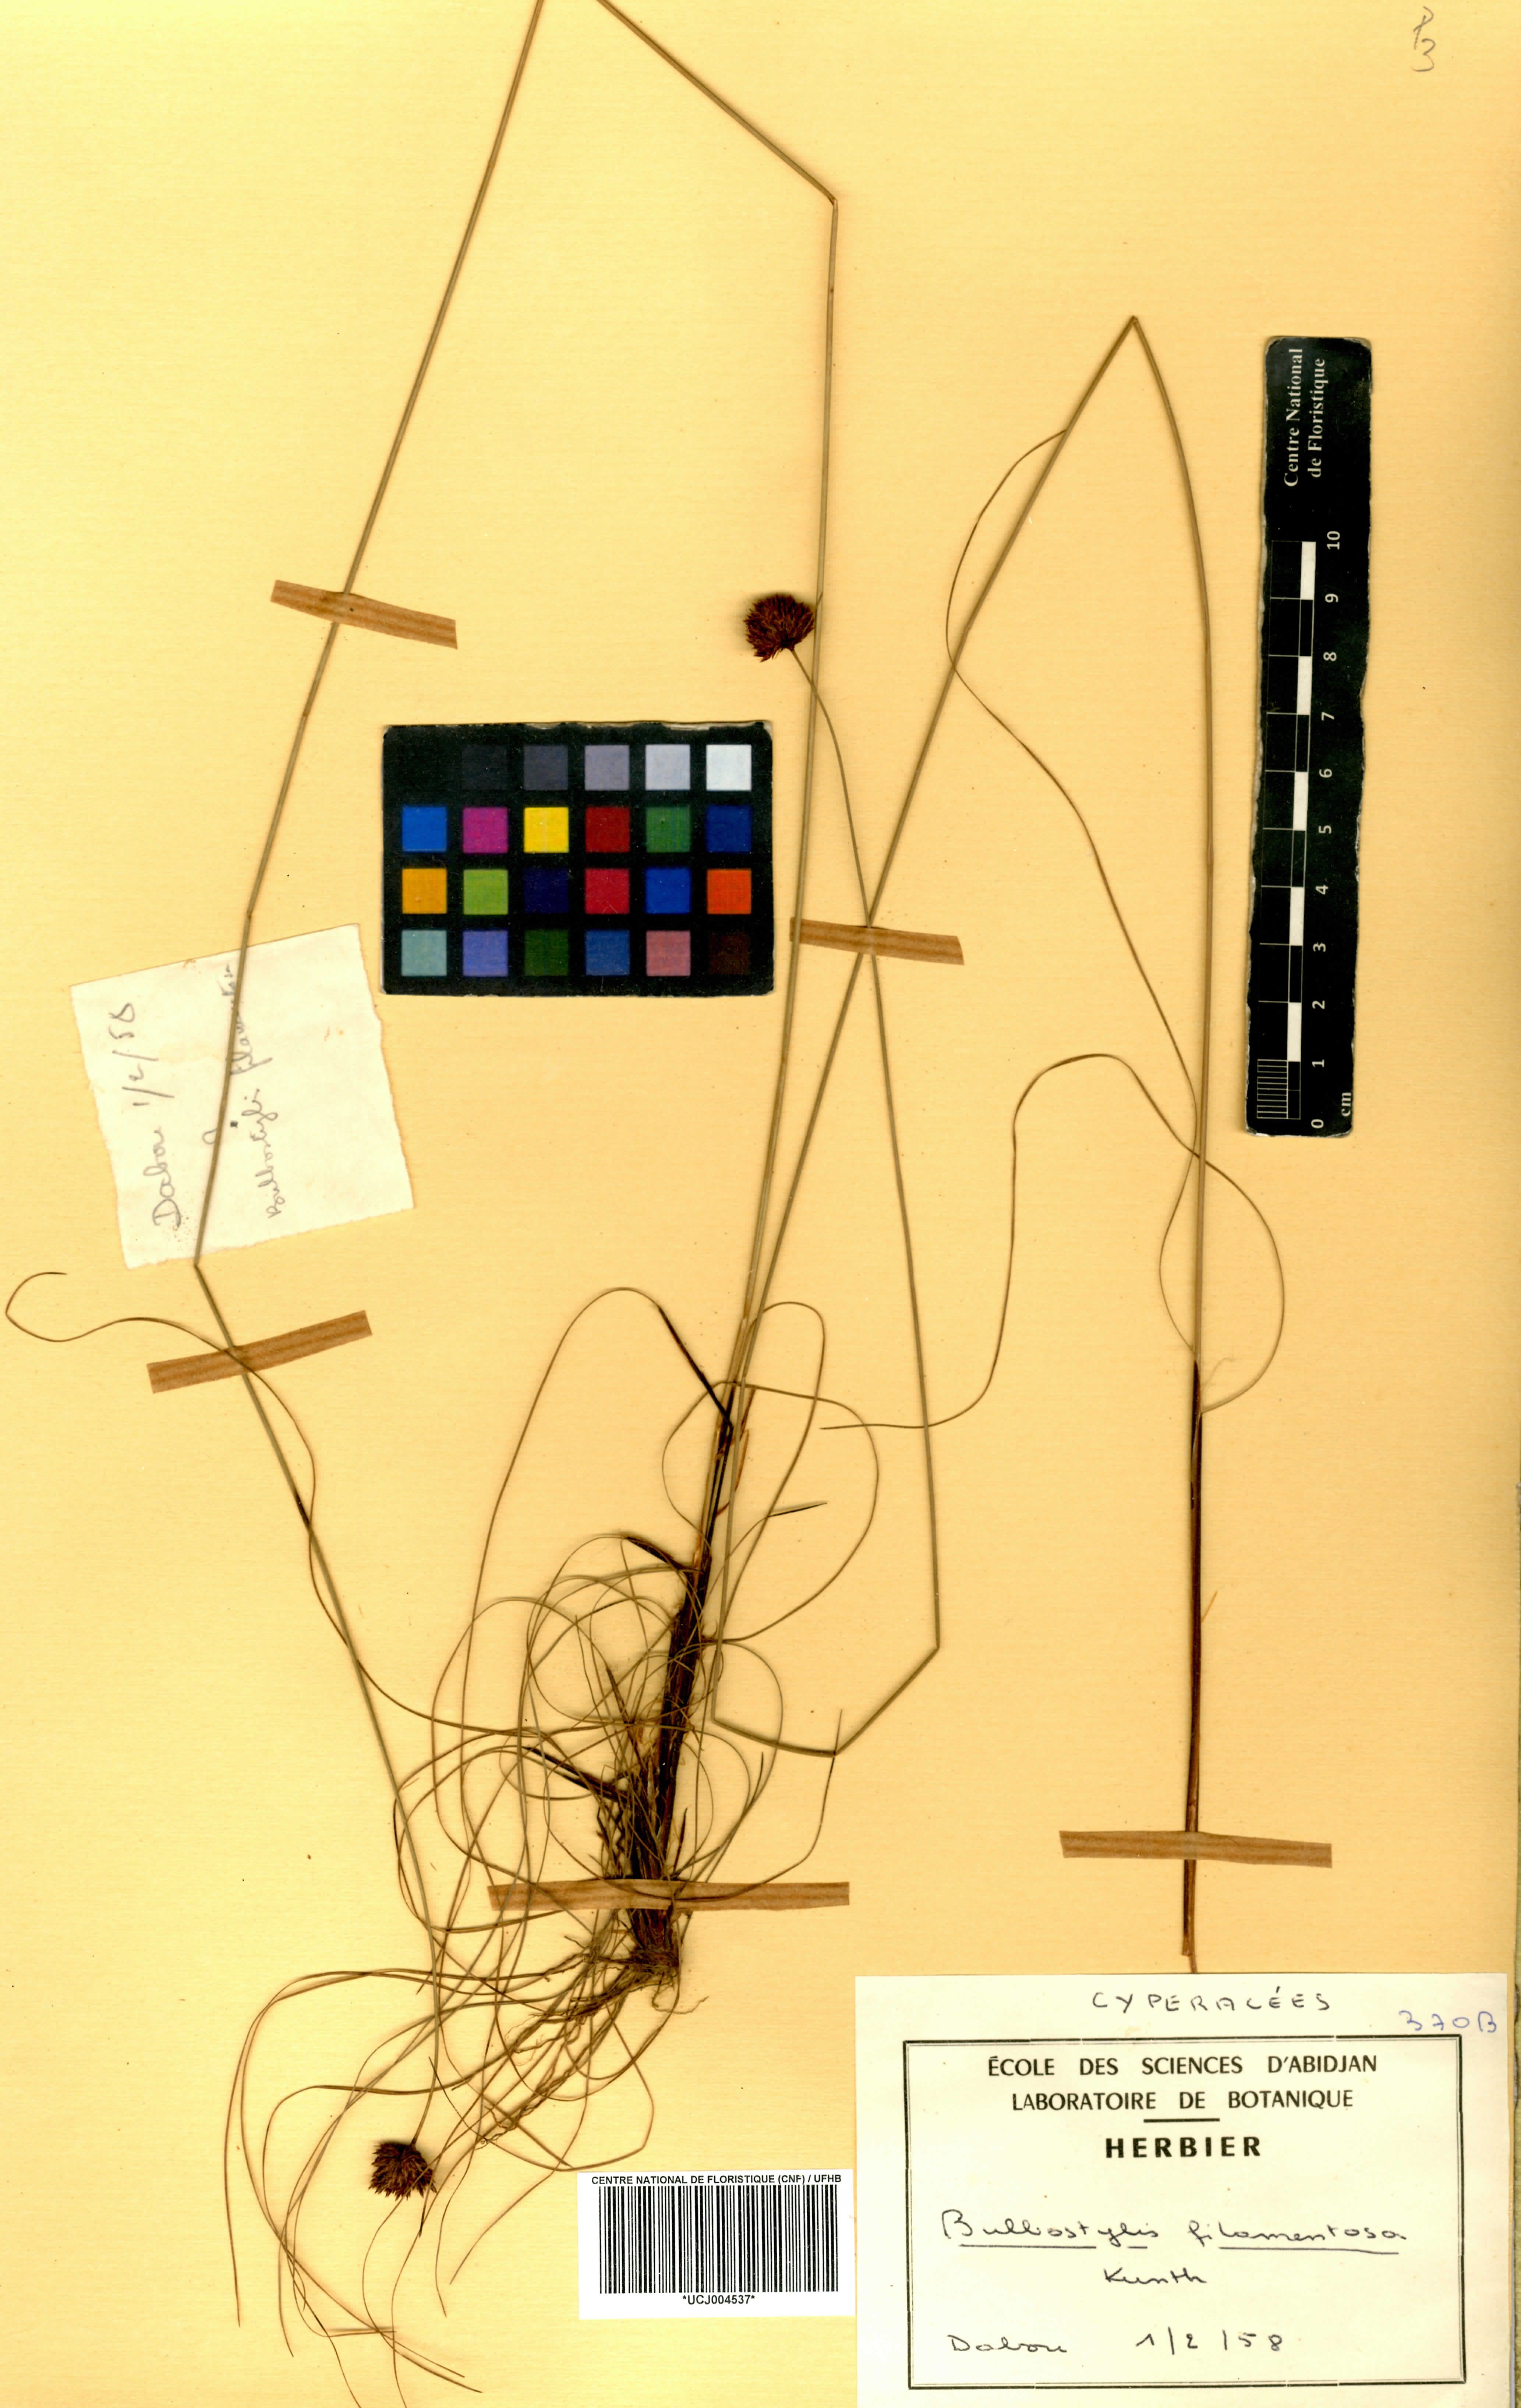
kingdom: Plantae
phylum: Tracheophyta
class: Liliopsida
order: Poales
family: Cyperaceae
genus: Bulbostylis
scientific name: Bulbostylis filamentosa
